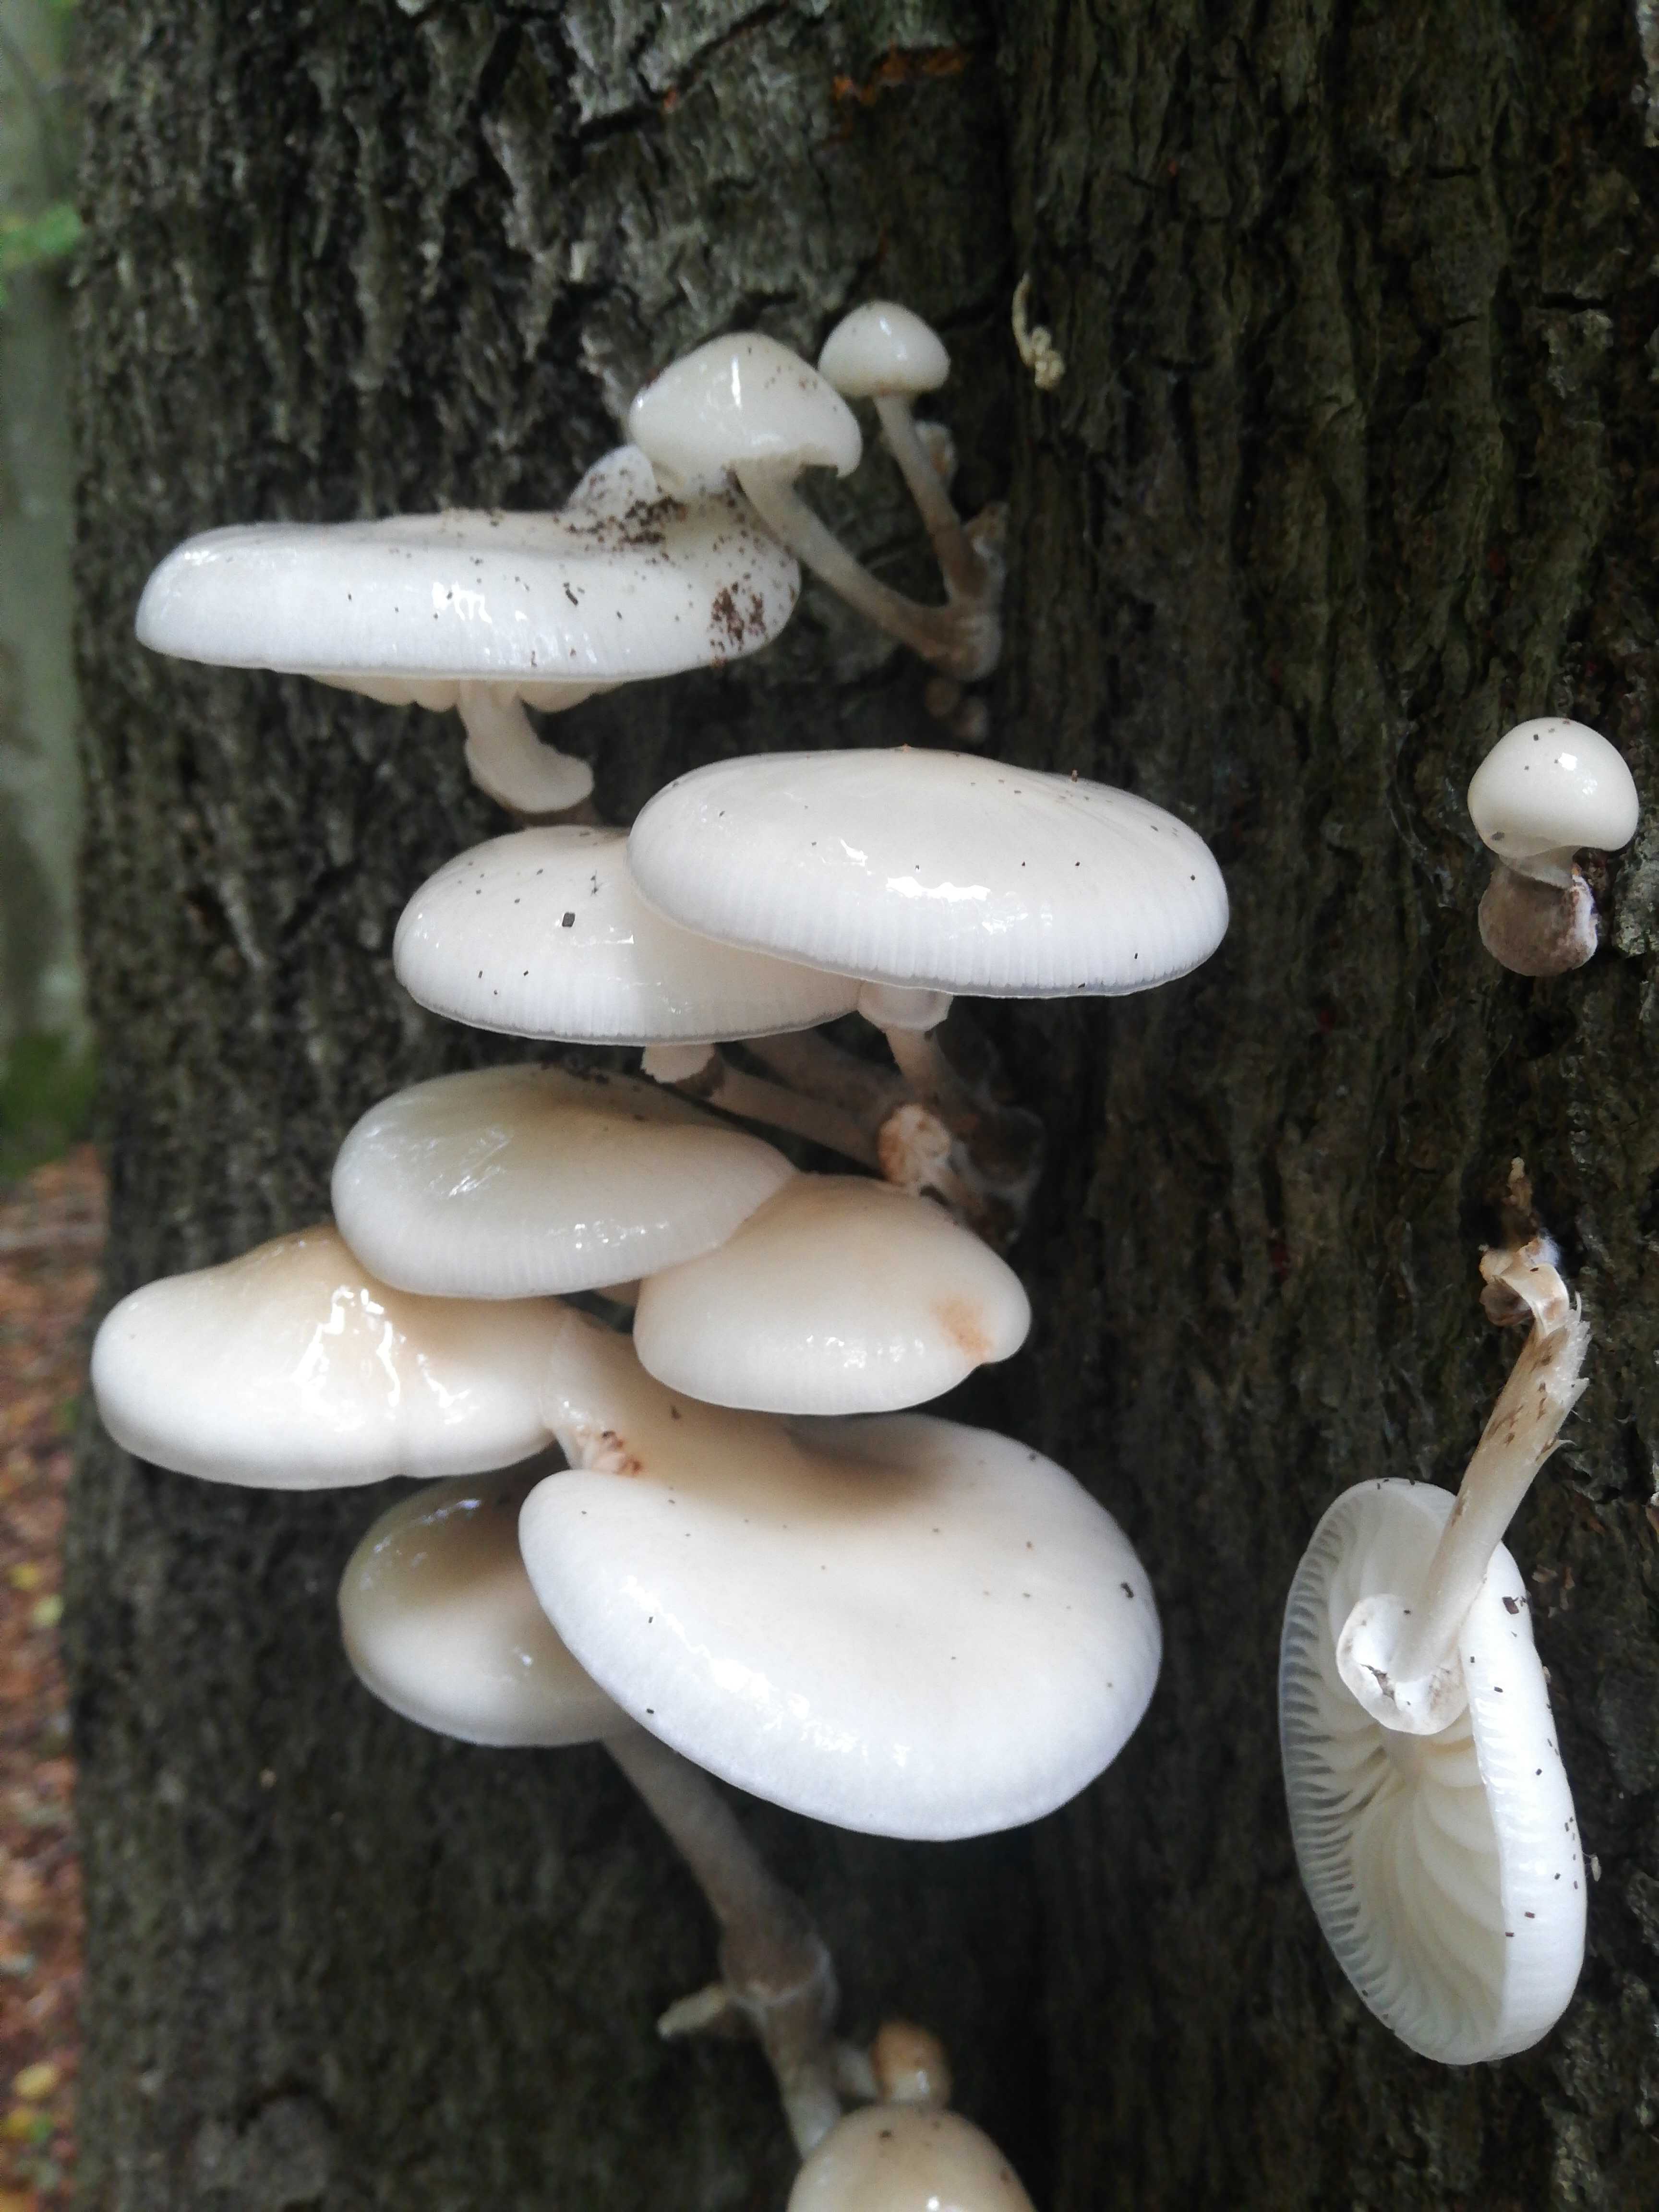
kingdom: Fungi
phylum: Basidiomycota
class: Agaricomycetes
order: Agaricales
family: Physalacriaceae
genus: Mucidula
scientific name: Mucidula mucida
